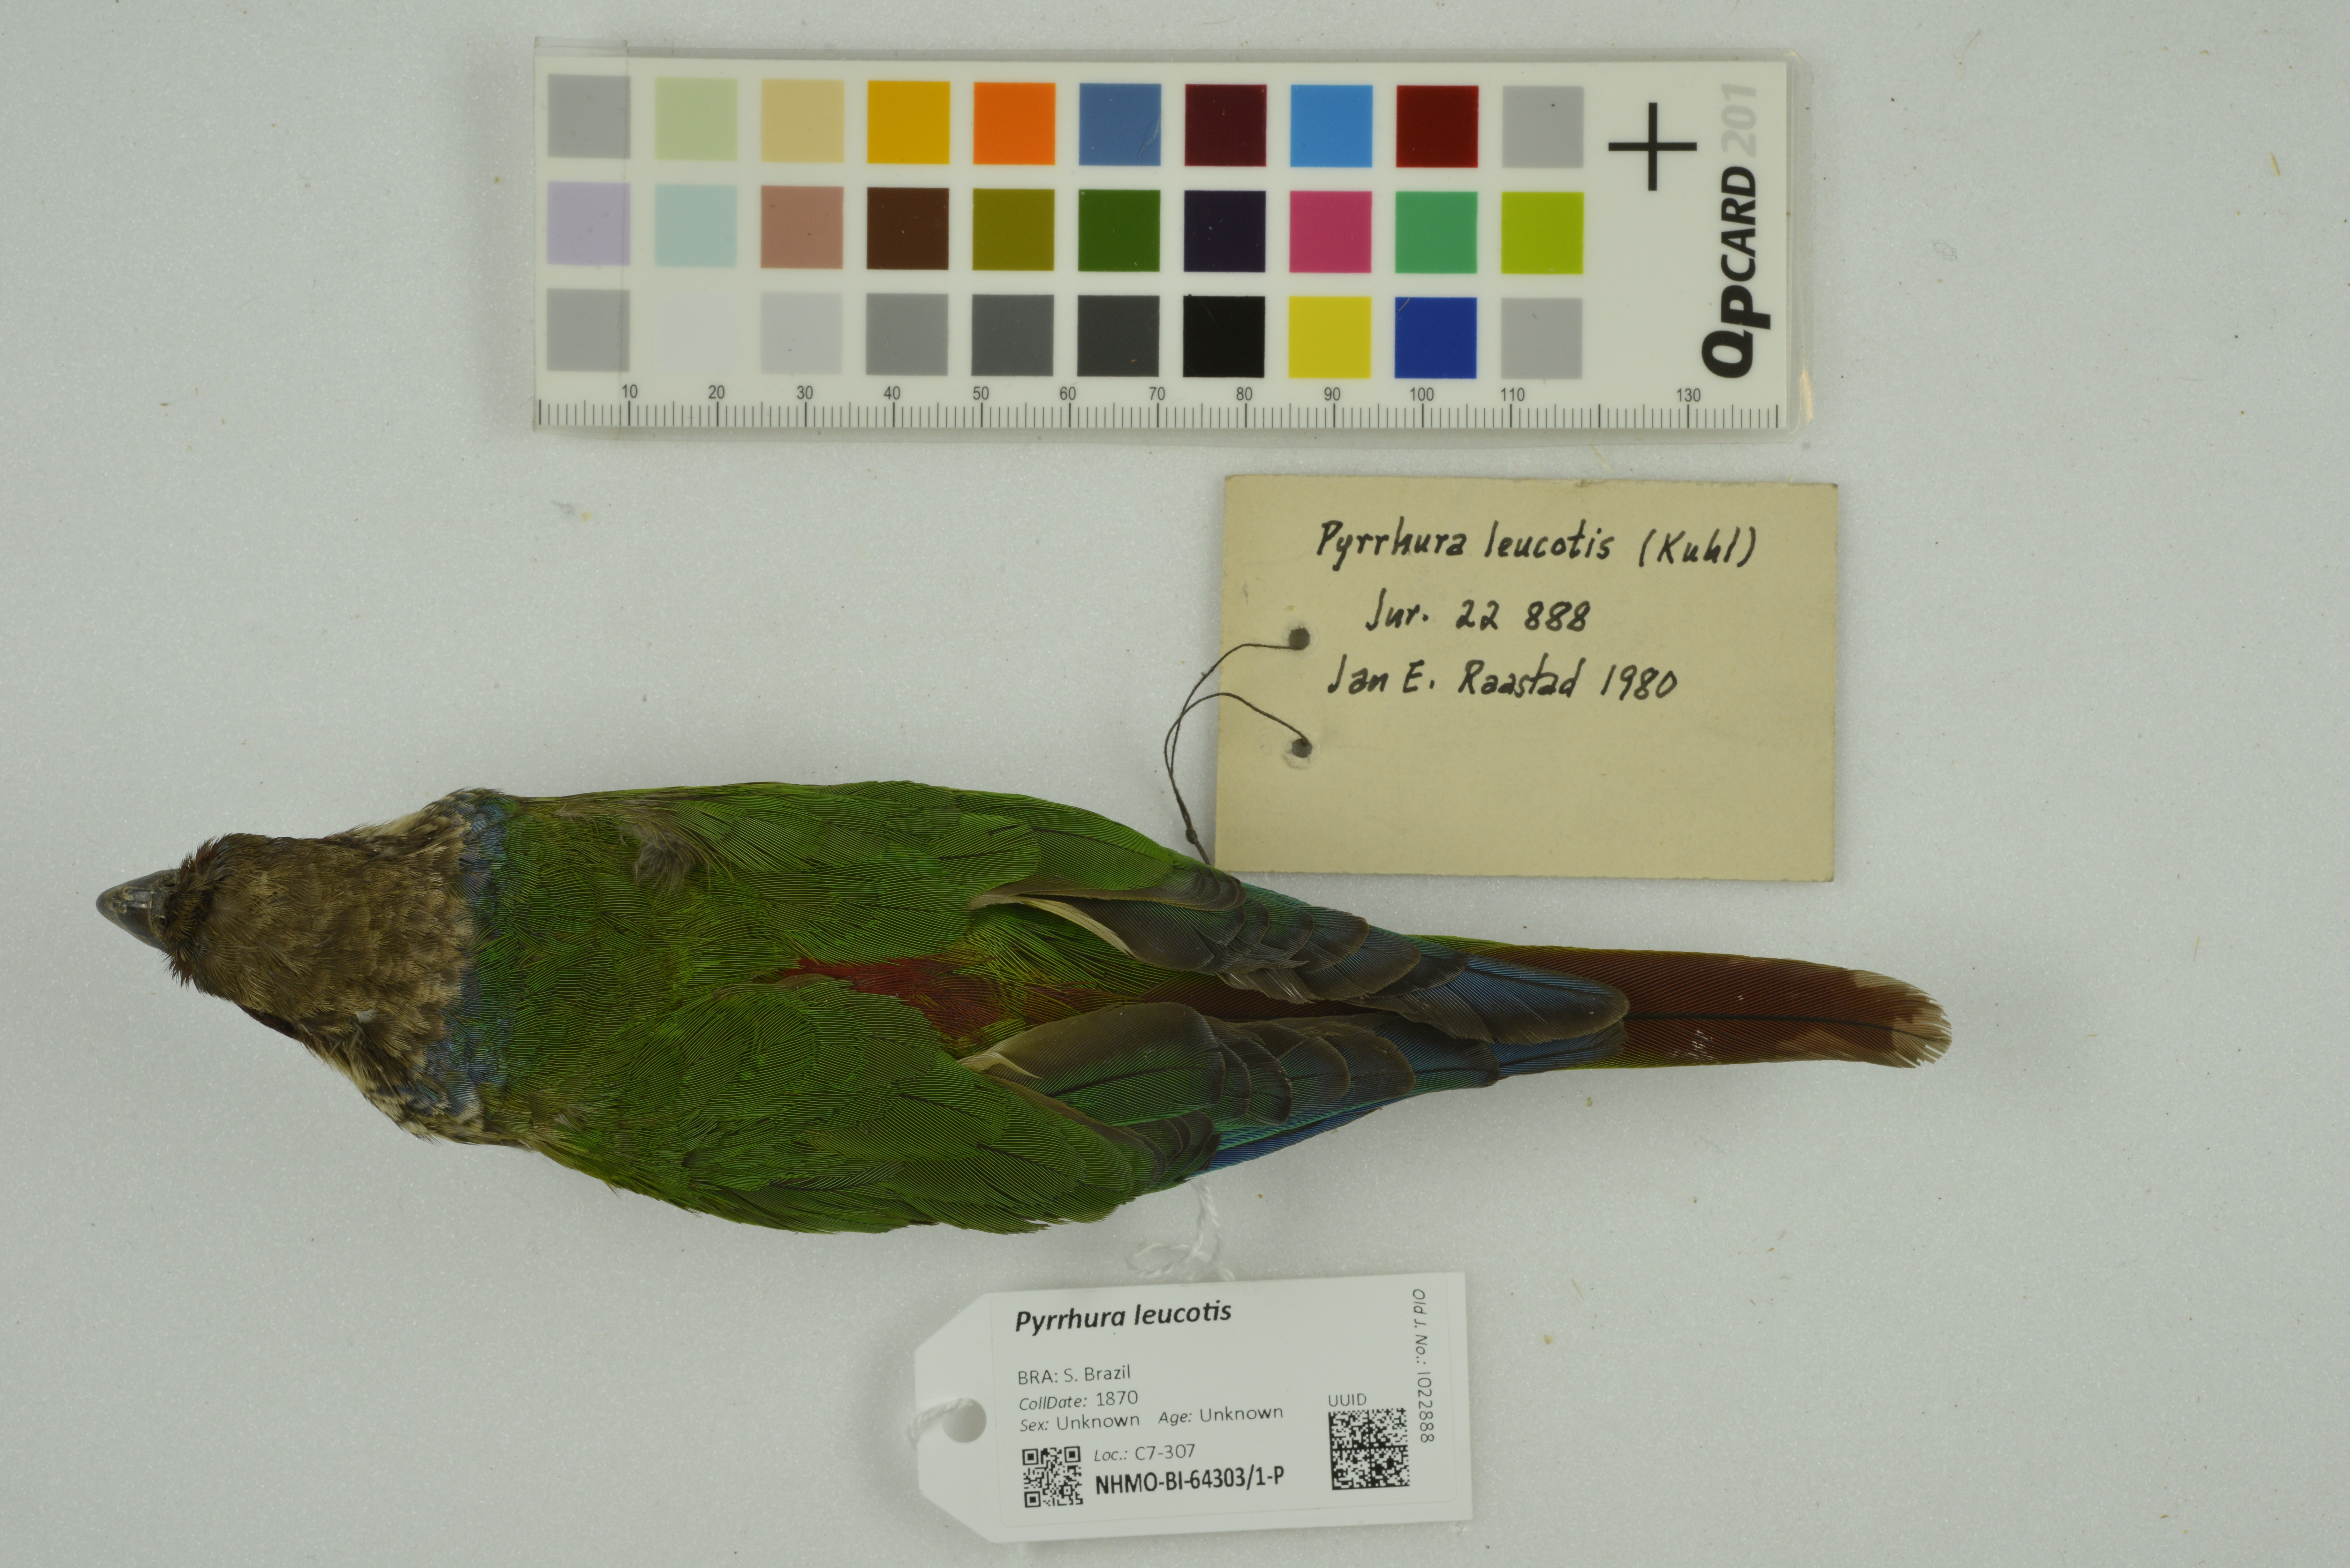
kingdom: Animalia
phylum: Chordata
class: Aves
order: Psittaciformes
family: Psittacidae
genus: Pyrrhura
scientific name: Pyrrhura leucotis
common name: White-eared parakeet
